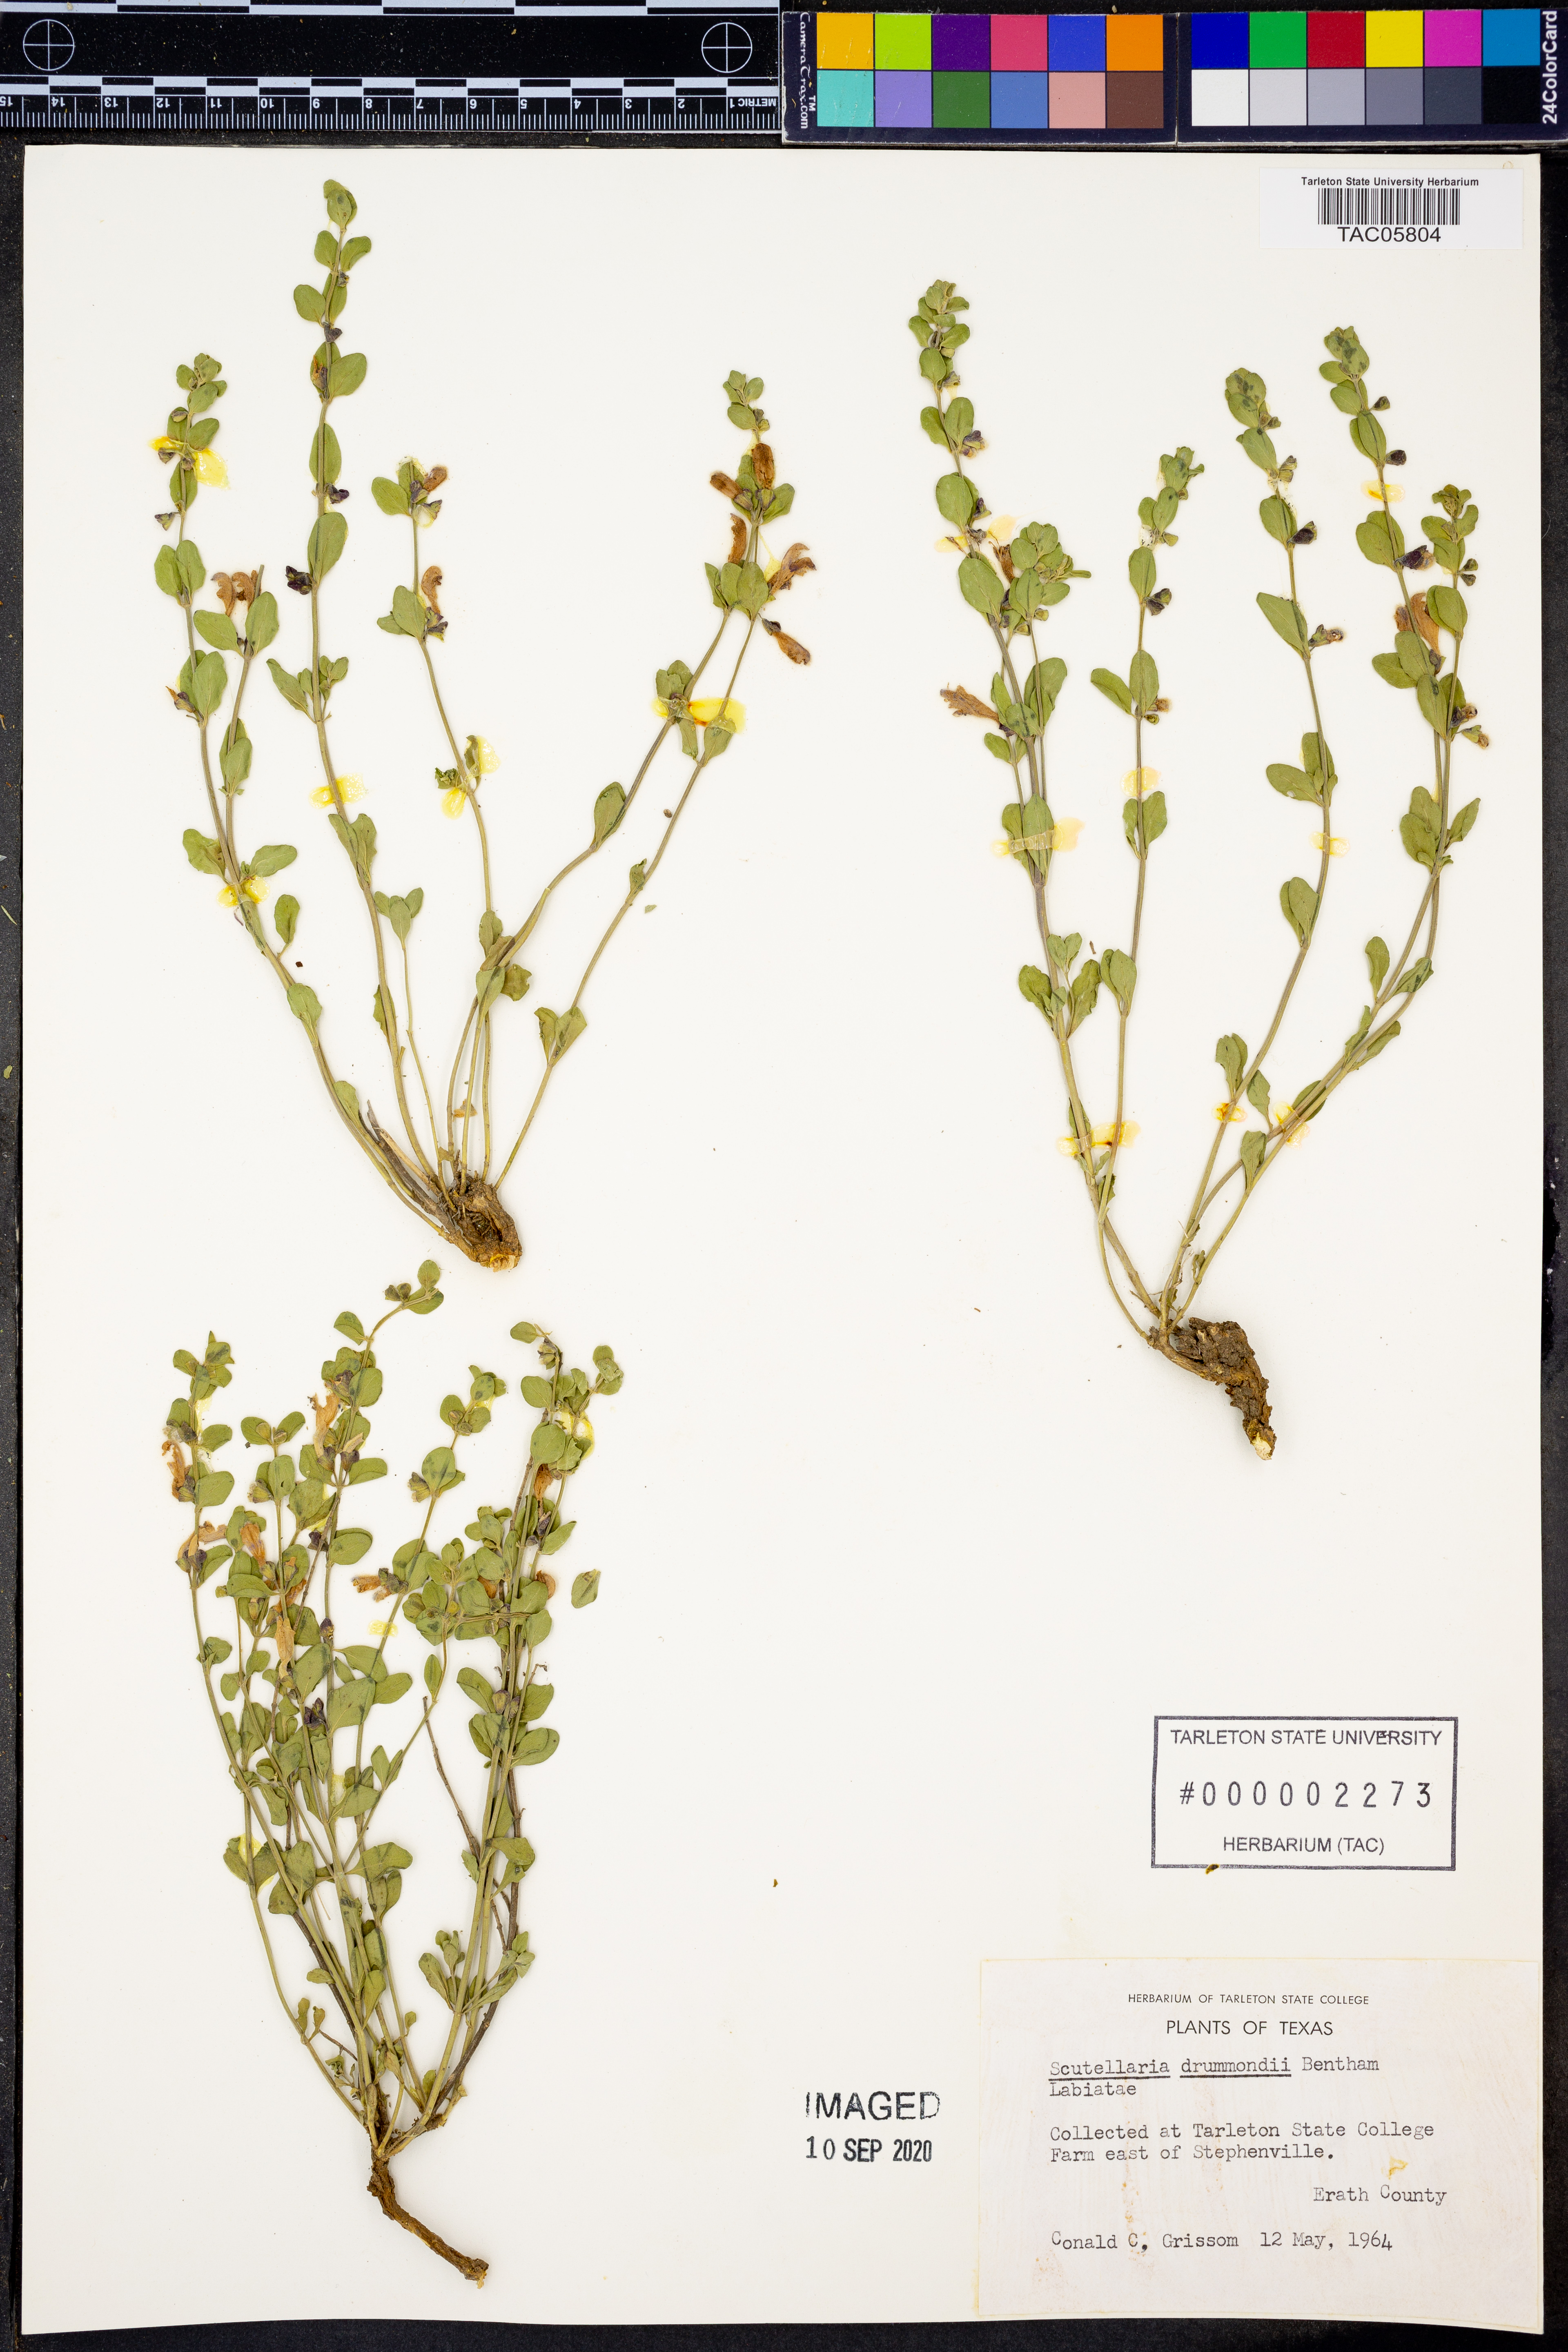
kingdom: Plantae
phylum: Tracheophyta
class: Magnoliopsida
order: Lamiales
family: Lamiaceae
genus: Scutellaria
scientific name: Scutellaria drummondii
